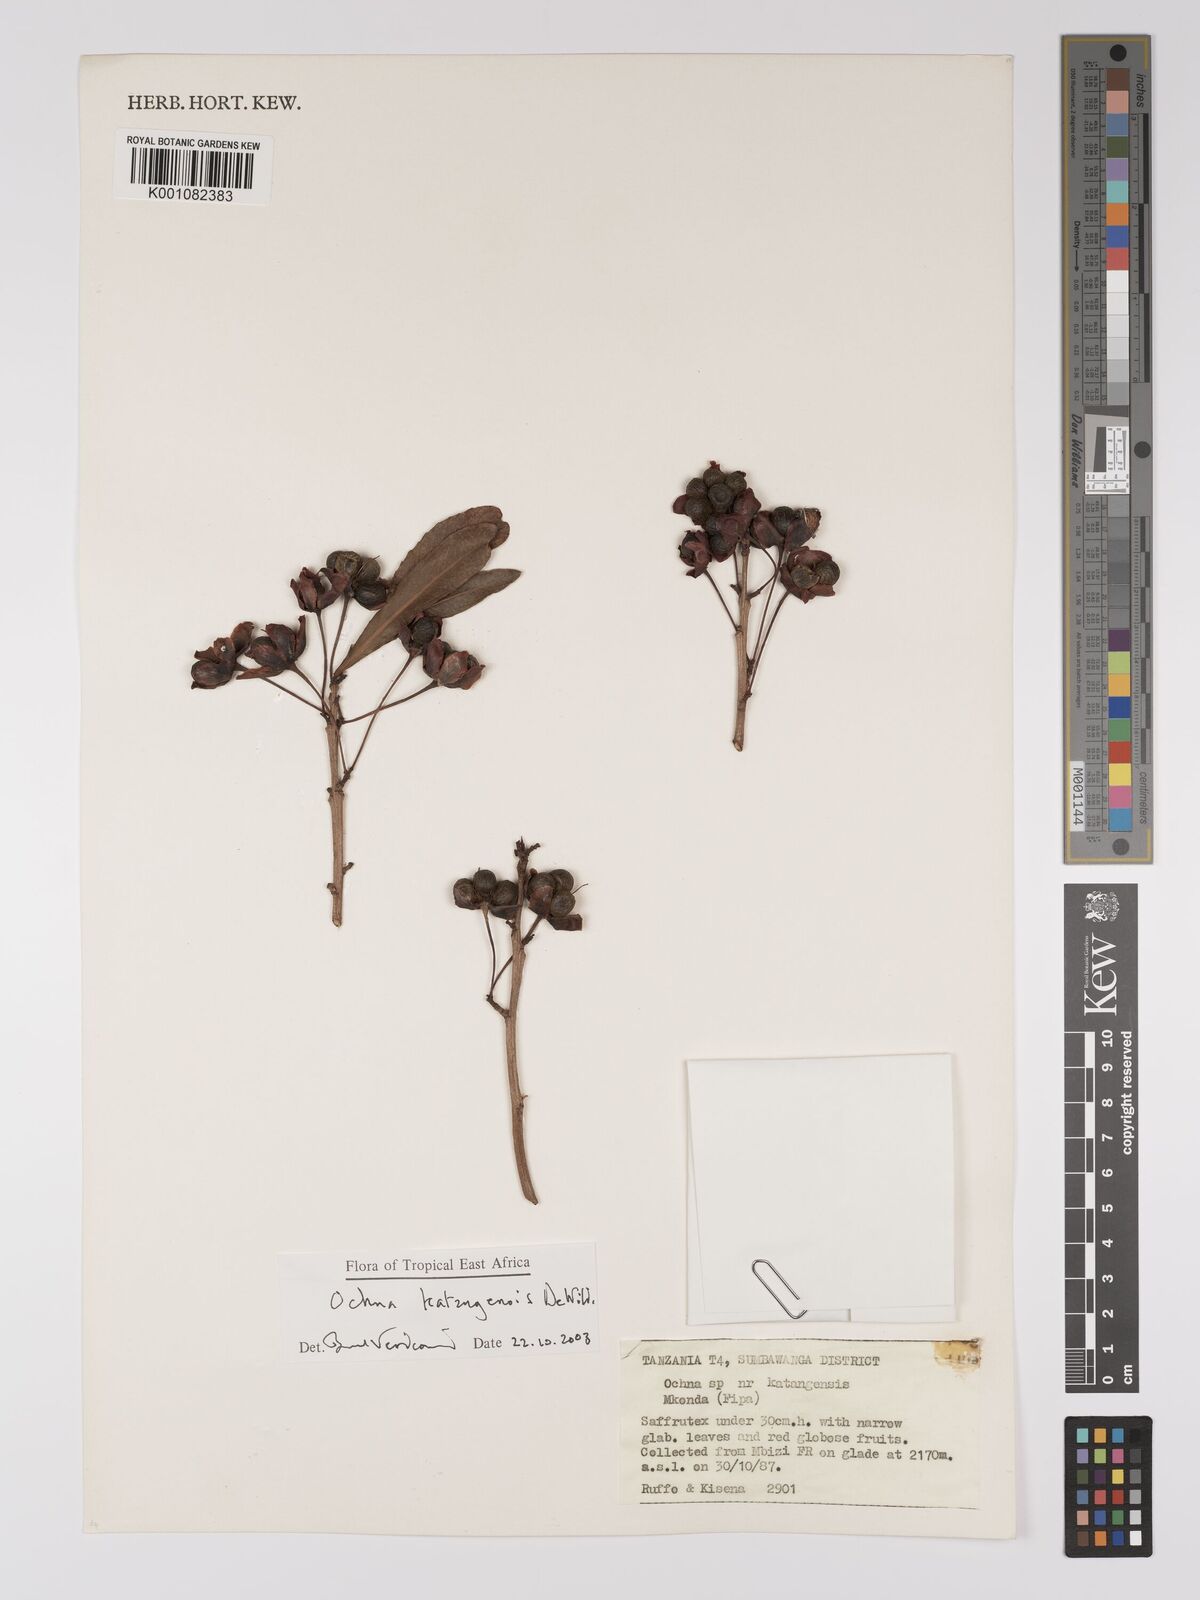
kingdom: Plantae
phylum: Tracheophyta
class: Magnoliopsida
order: Malpighiales
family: Ochnaceae
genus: Ochna
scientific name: Ochna katangensis
